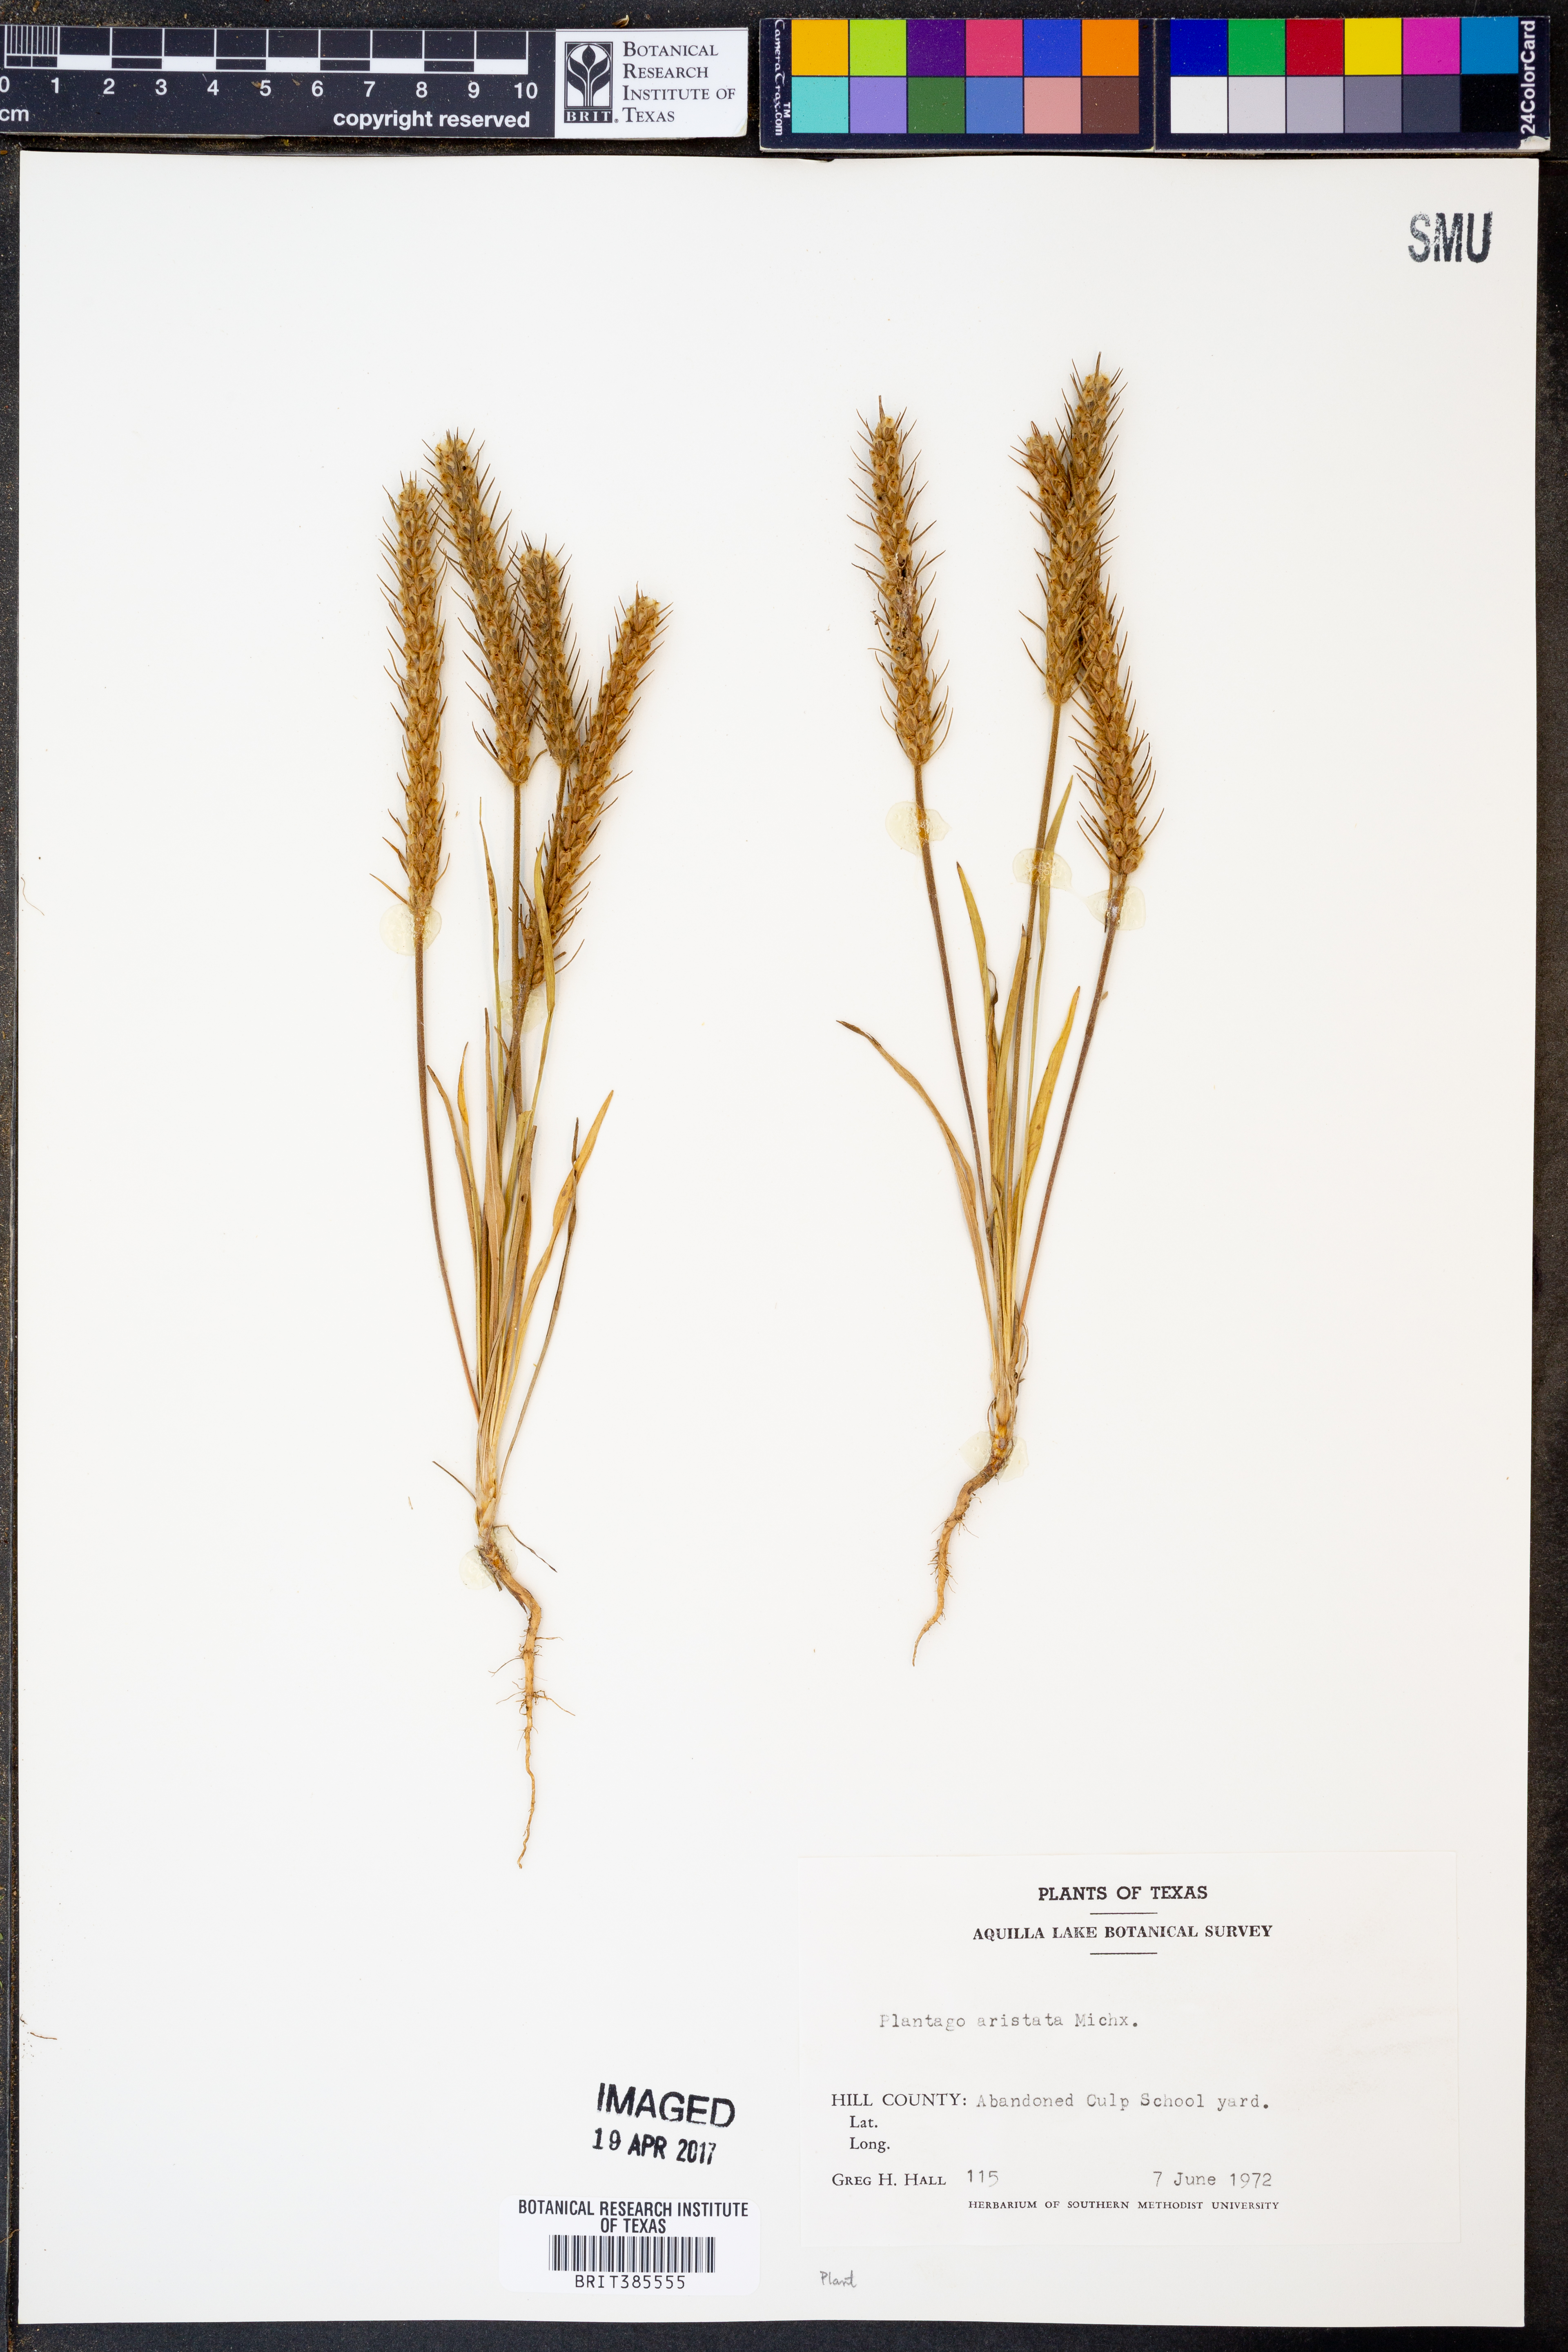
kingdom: Plantae
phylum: Tracheophyta
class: Magnoliopsida
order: Lamiales
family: Plantaginaceae
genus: Plantago
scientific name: Plantago aristata
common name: Bracted plantain
